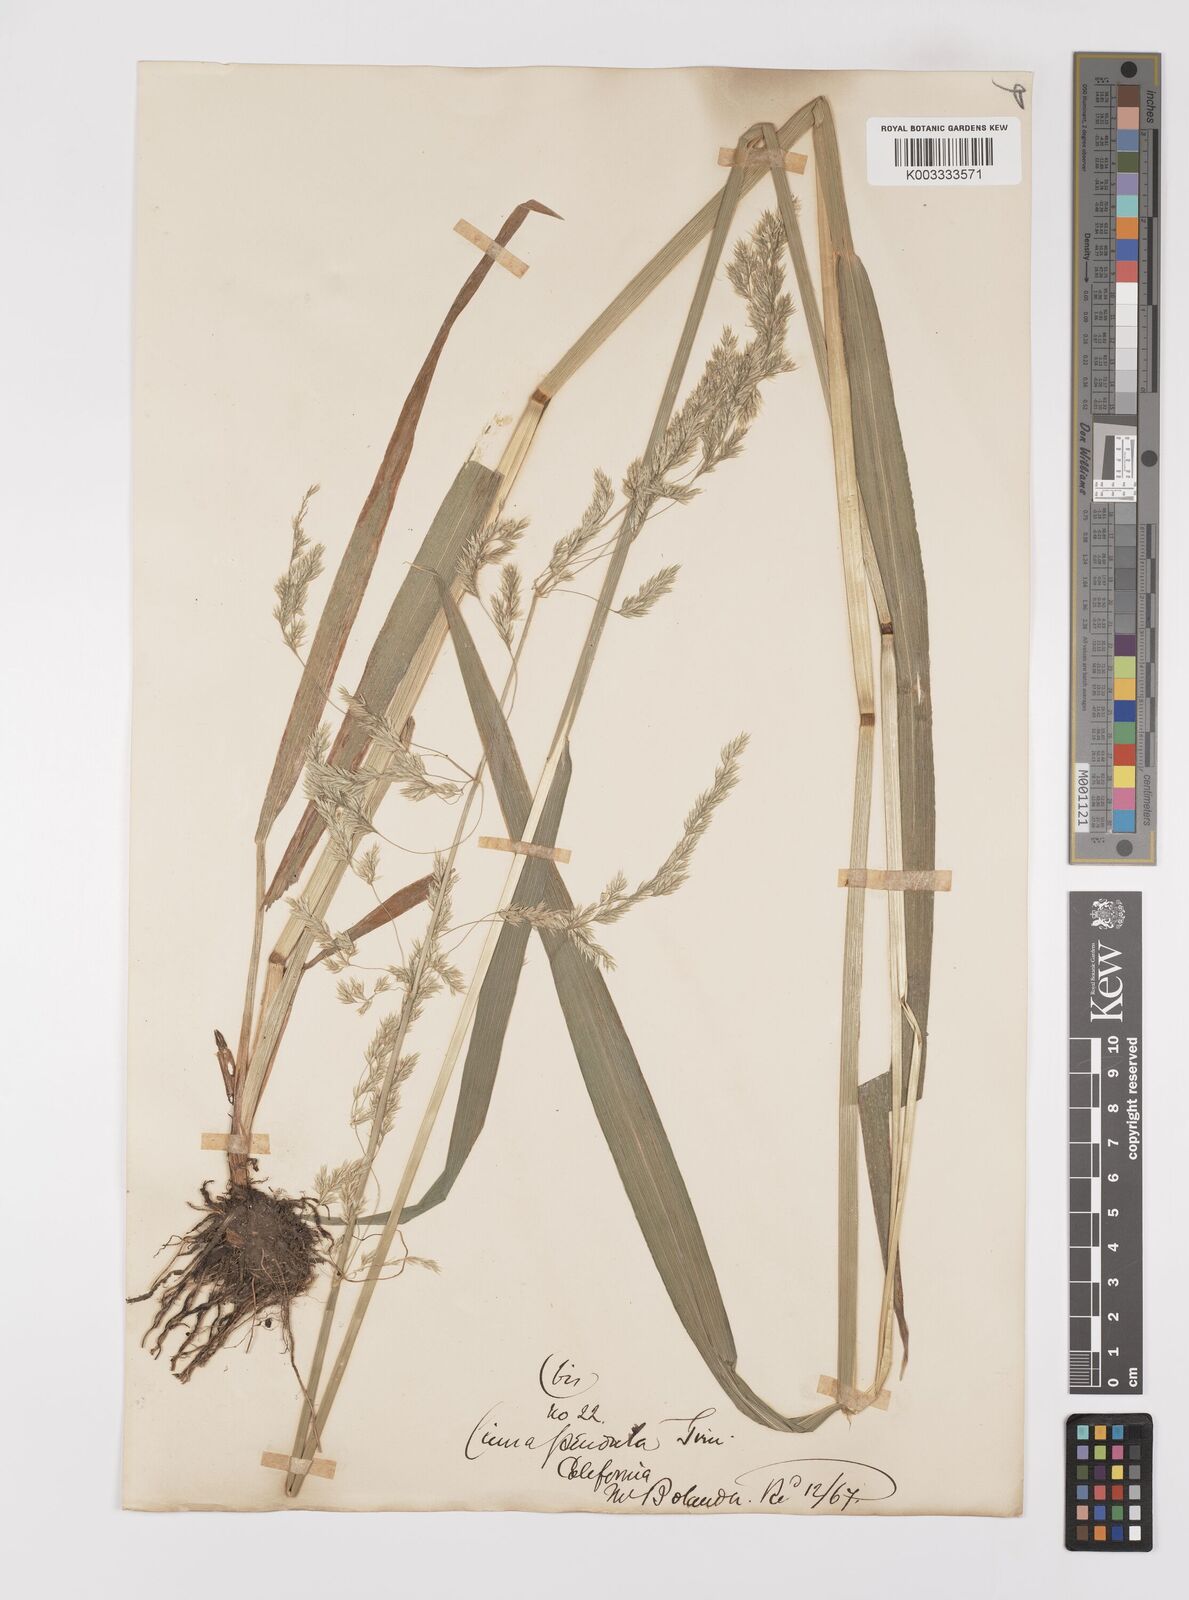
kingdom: Plantae
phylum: Tracheophyta
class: Liliopsida
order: Poales
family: Poaceae
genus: Cinna
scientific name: Cinna latifolia
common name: Drooping woodreed
